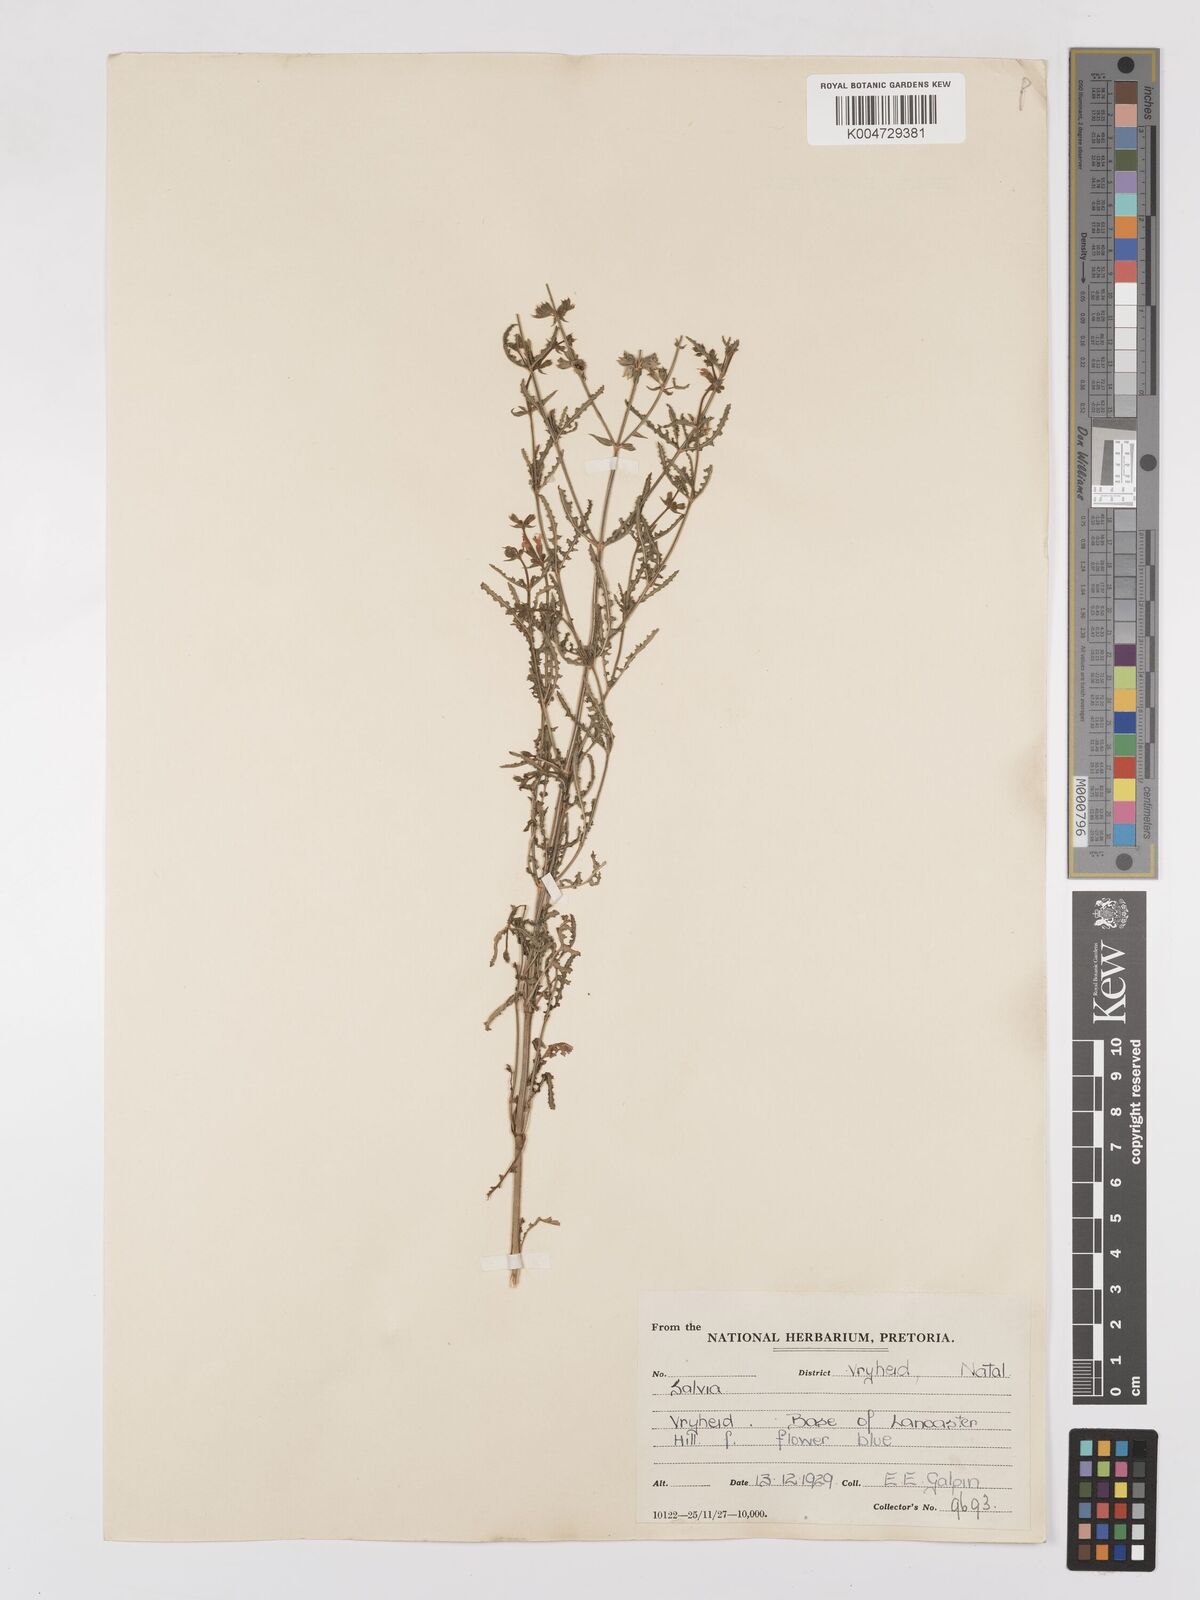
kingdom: Plantae
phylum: Tracheophyta
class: Magnoliopsida
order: Lamiales
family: Lamiaceae
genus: Salvia
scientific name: Salvia stenophylla
